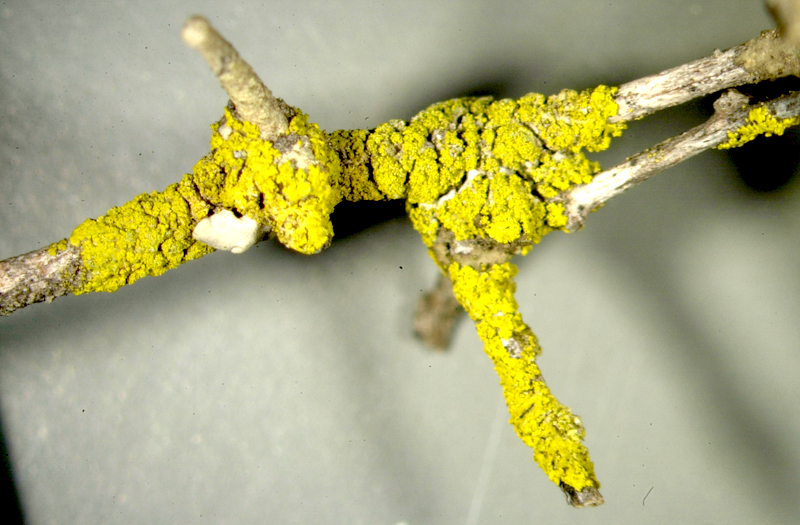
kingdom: Fungi
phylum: Ascomycota
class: Candelariomycetes
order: Candelariales
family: Candelariaceae
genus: Candelaria
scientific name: Candelaria
